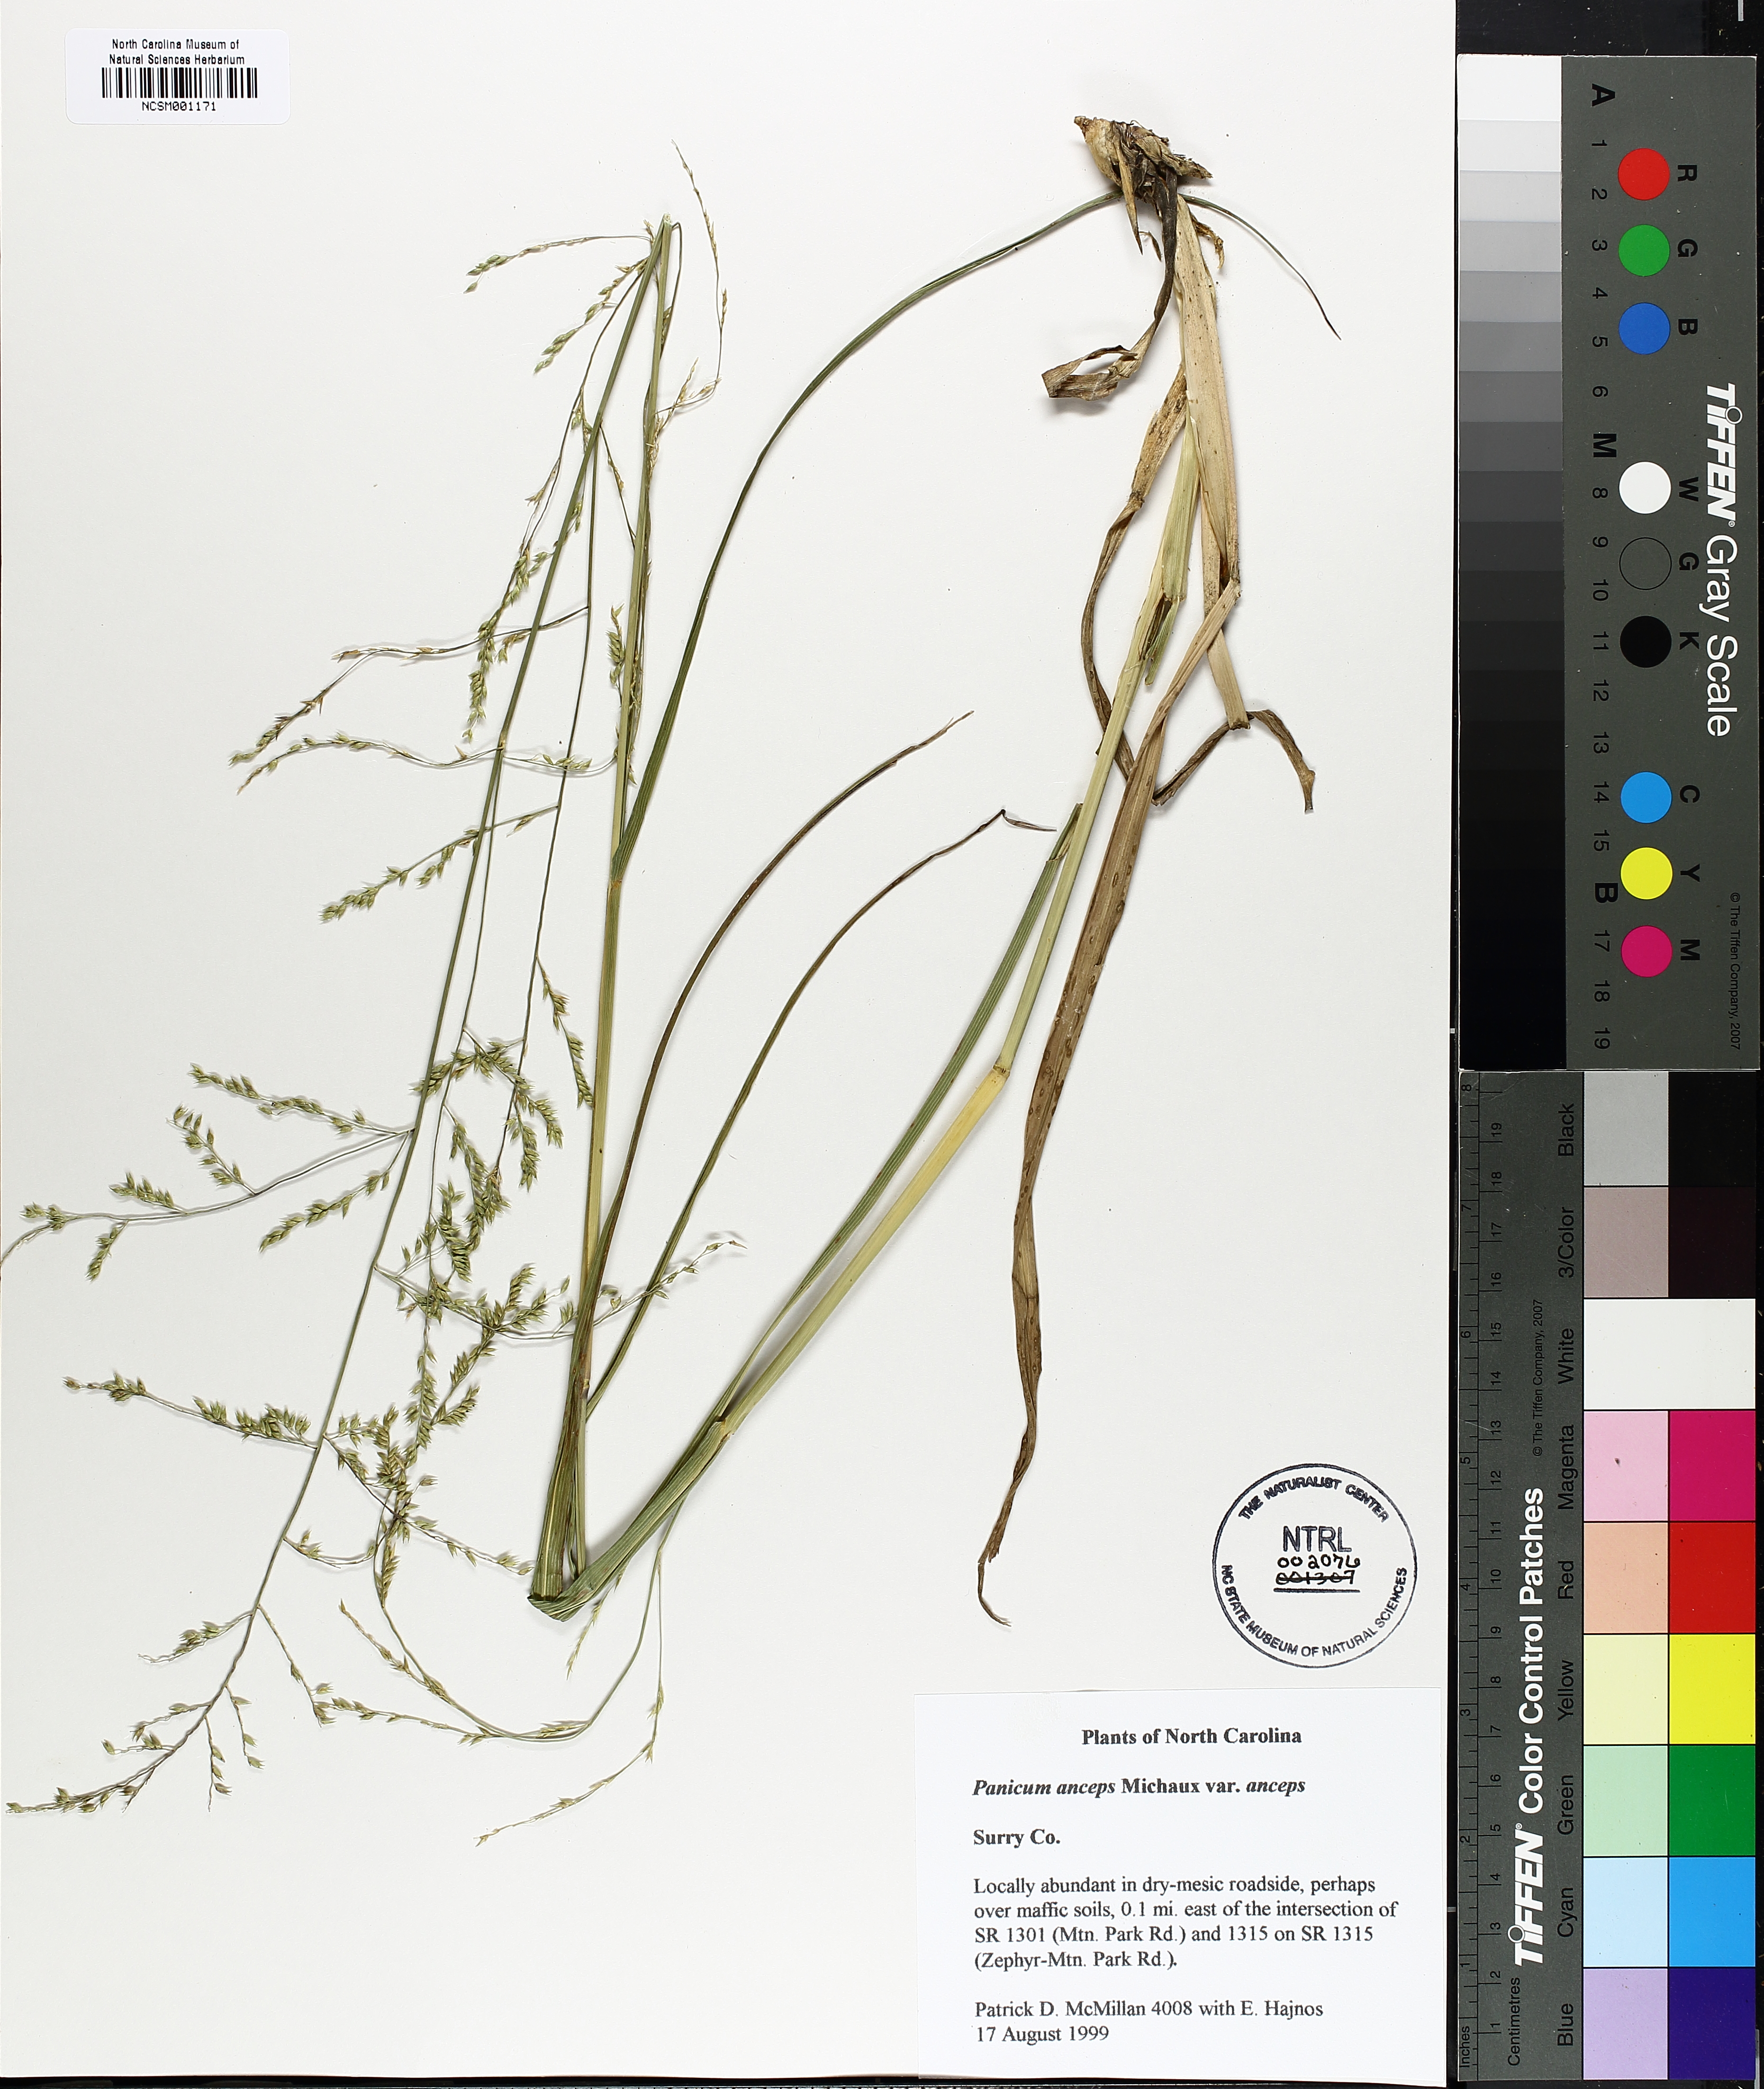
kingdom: Plantae
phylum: Tracheophyta
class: Liliopsida
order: Poales
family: Poaceae
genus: Coleataenia
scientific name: Coleataenia anceps
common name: Beaked panic grass
